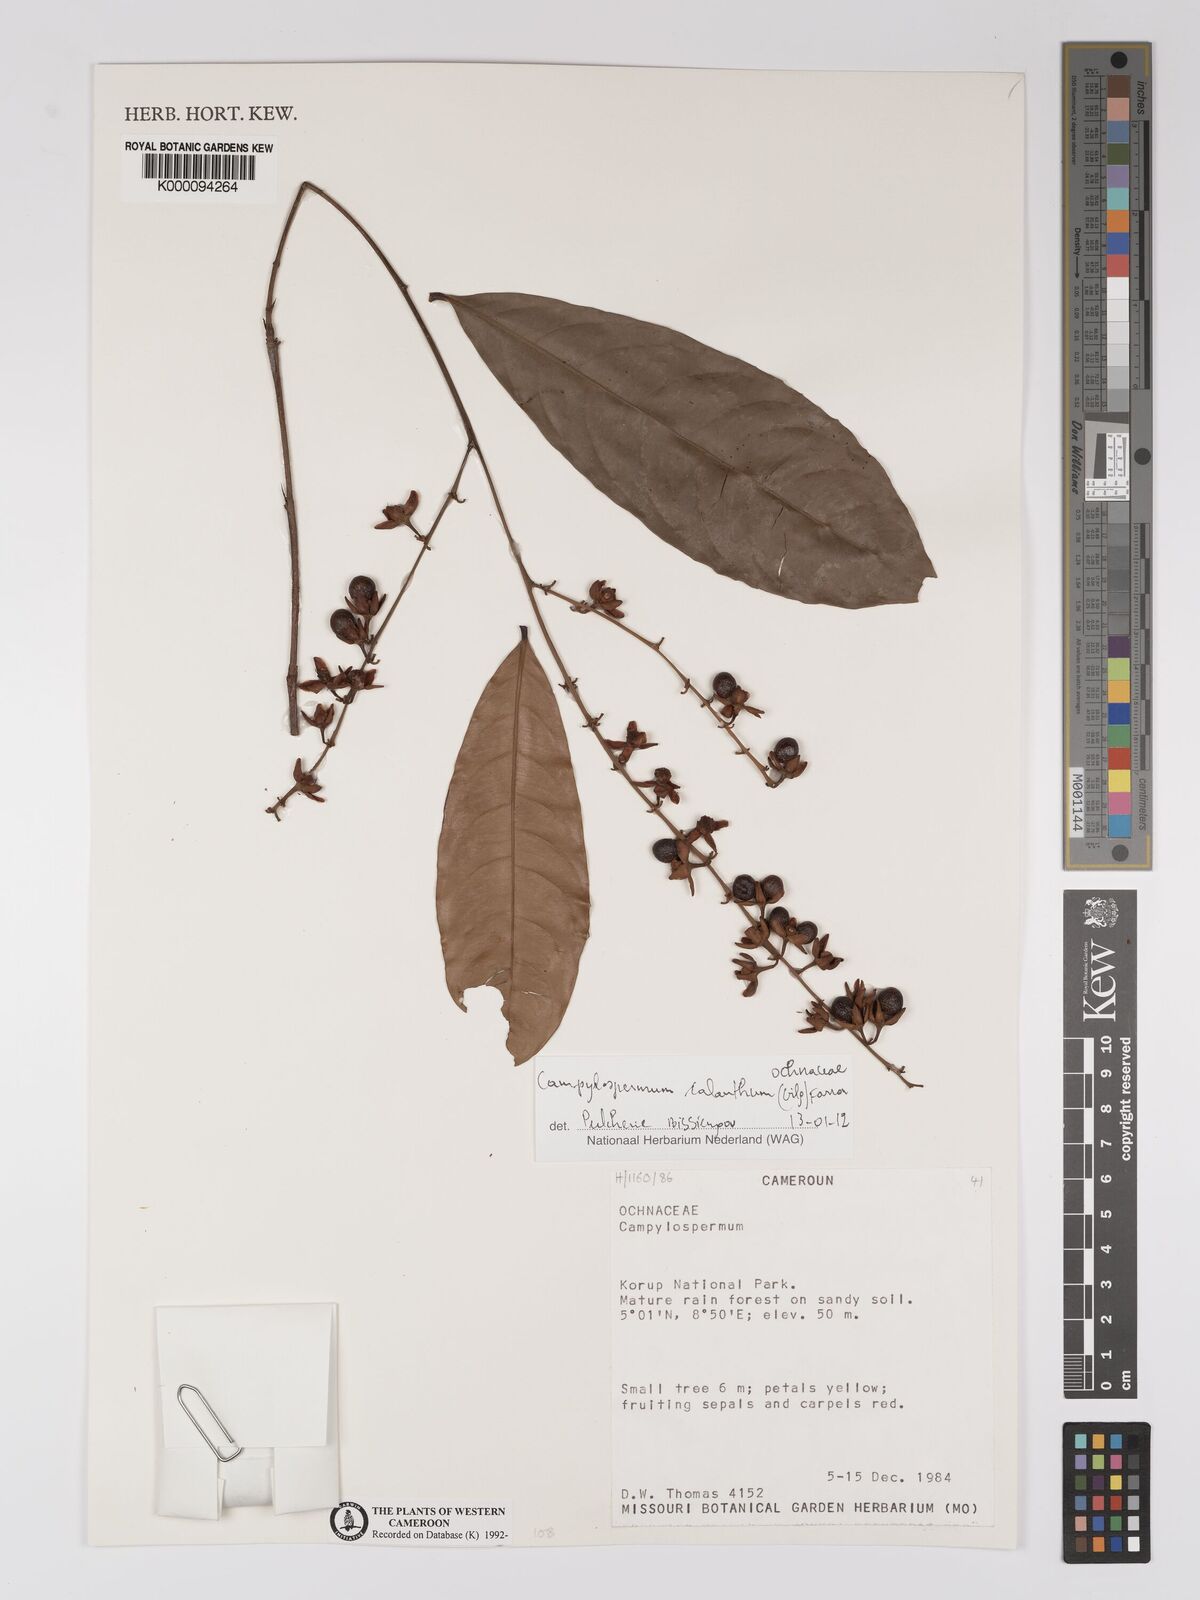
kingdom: Plantae
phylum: Tracheophyta
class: Magnoliopsida
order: Malpighiales
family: Ochnaceae
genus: Campylospermum
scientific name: Campylospermum
